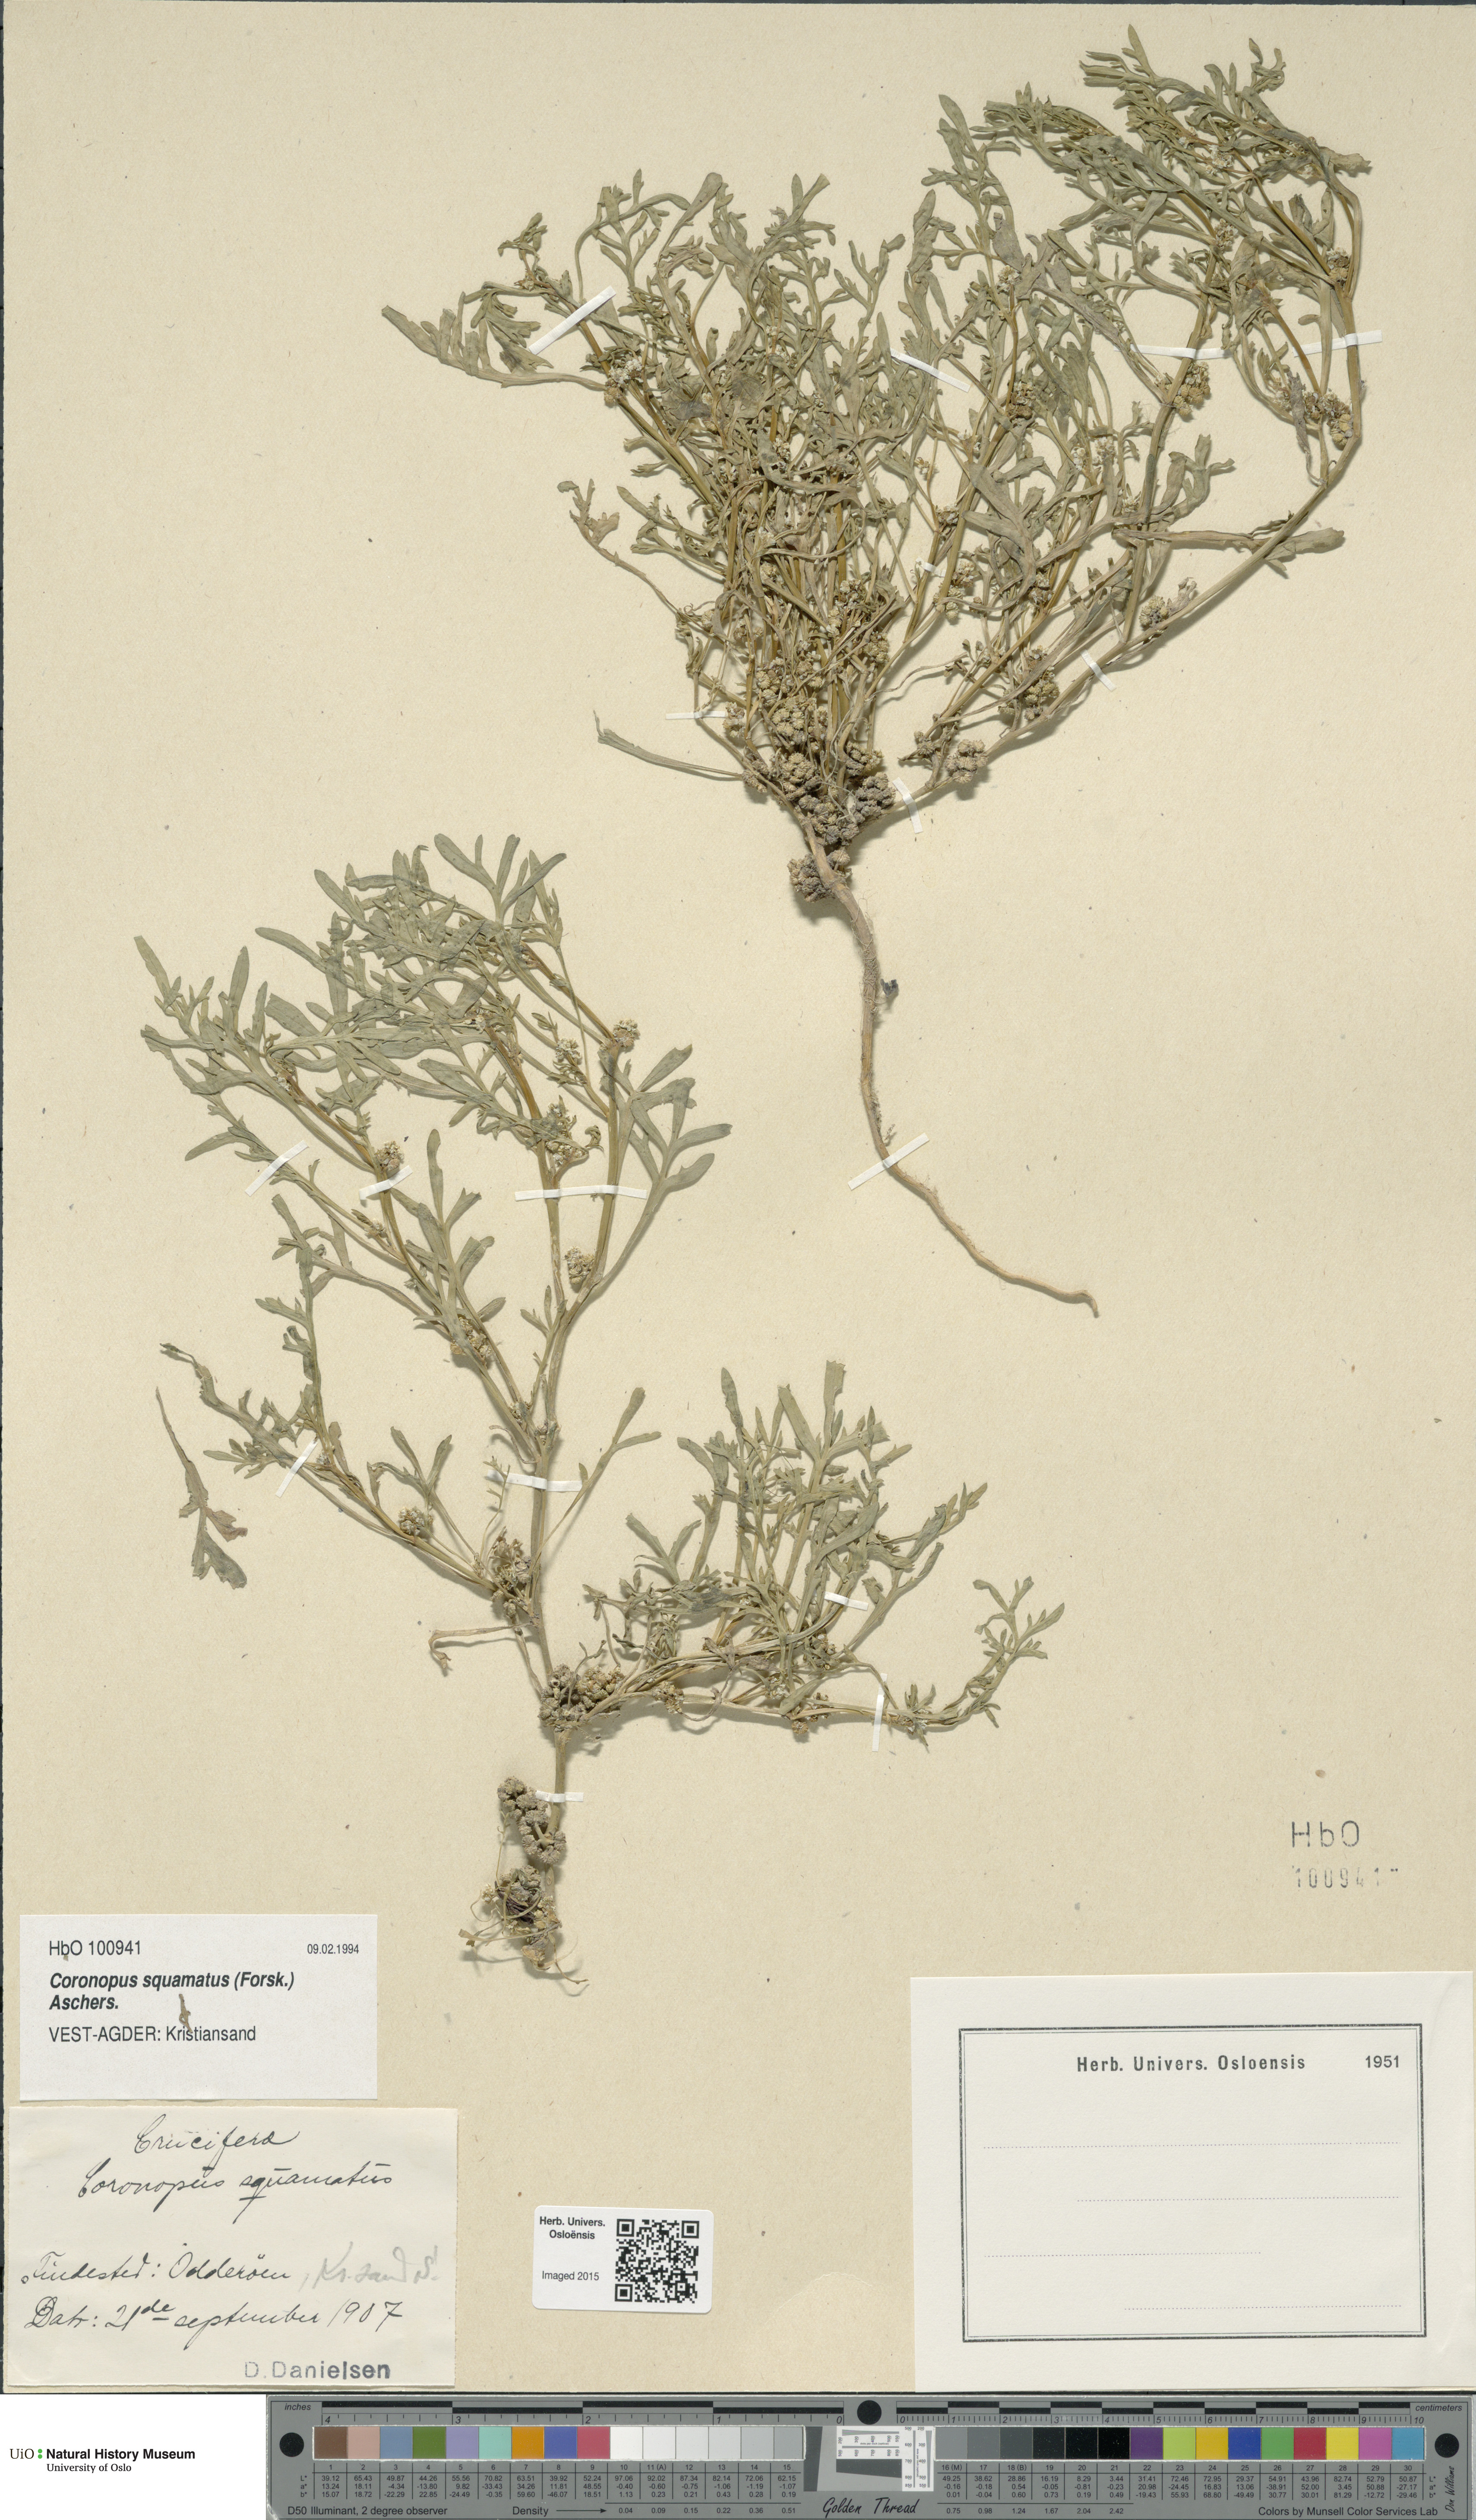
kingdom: Plantae
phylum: Tracheophyta
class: Magnoliopsida
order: Brassicales
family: Brassicaceae
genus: Lepidium
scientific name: Lepidium coronopus
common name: Greater swinecress
